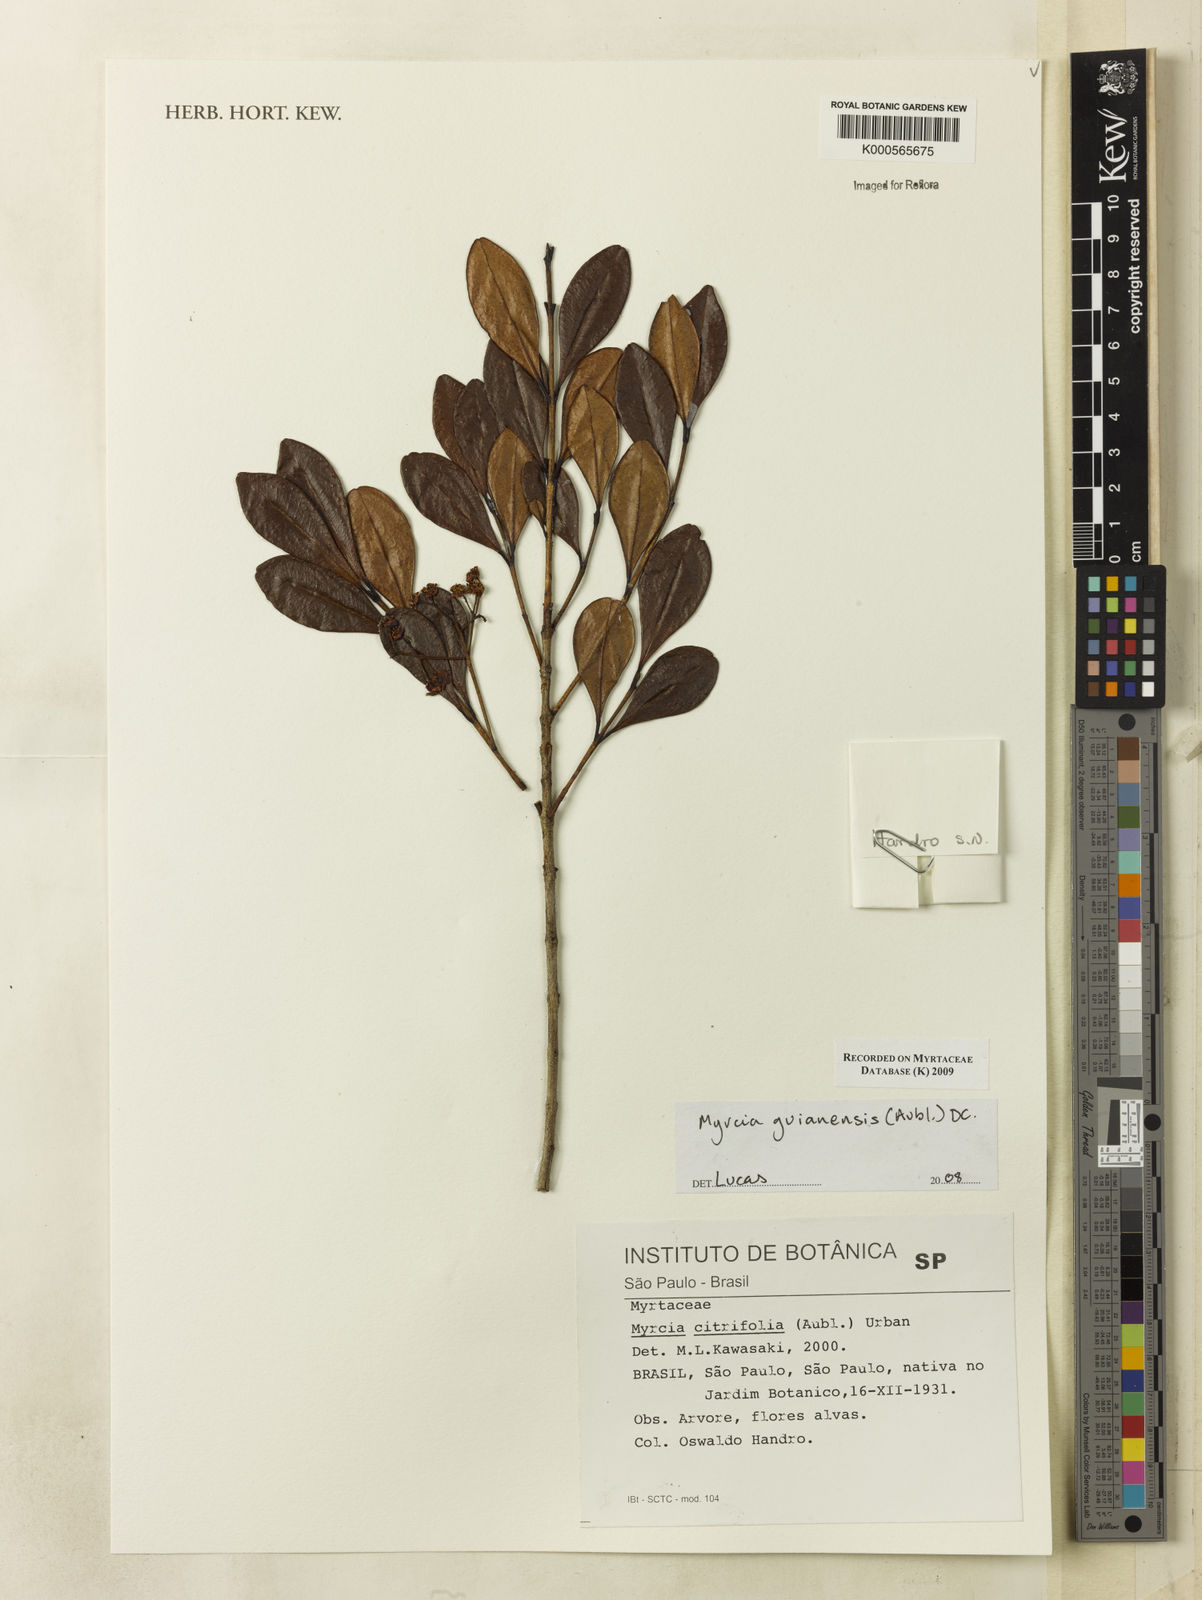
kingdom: Plantae
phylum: Tracheophyta
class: Magnoliopsida
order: Myrtales
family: Myrtaceae
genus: Myrcia
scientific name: Myrcia guianensis
